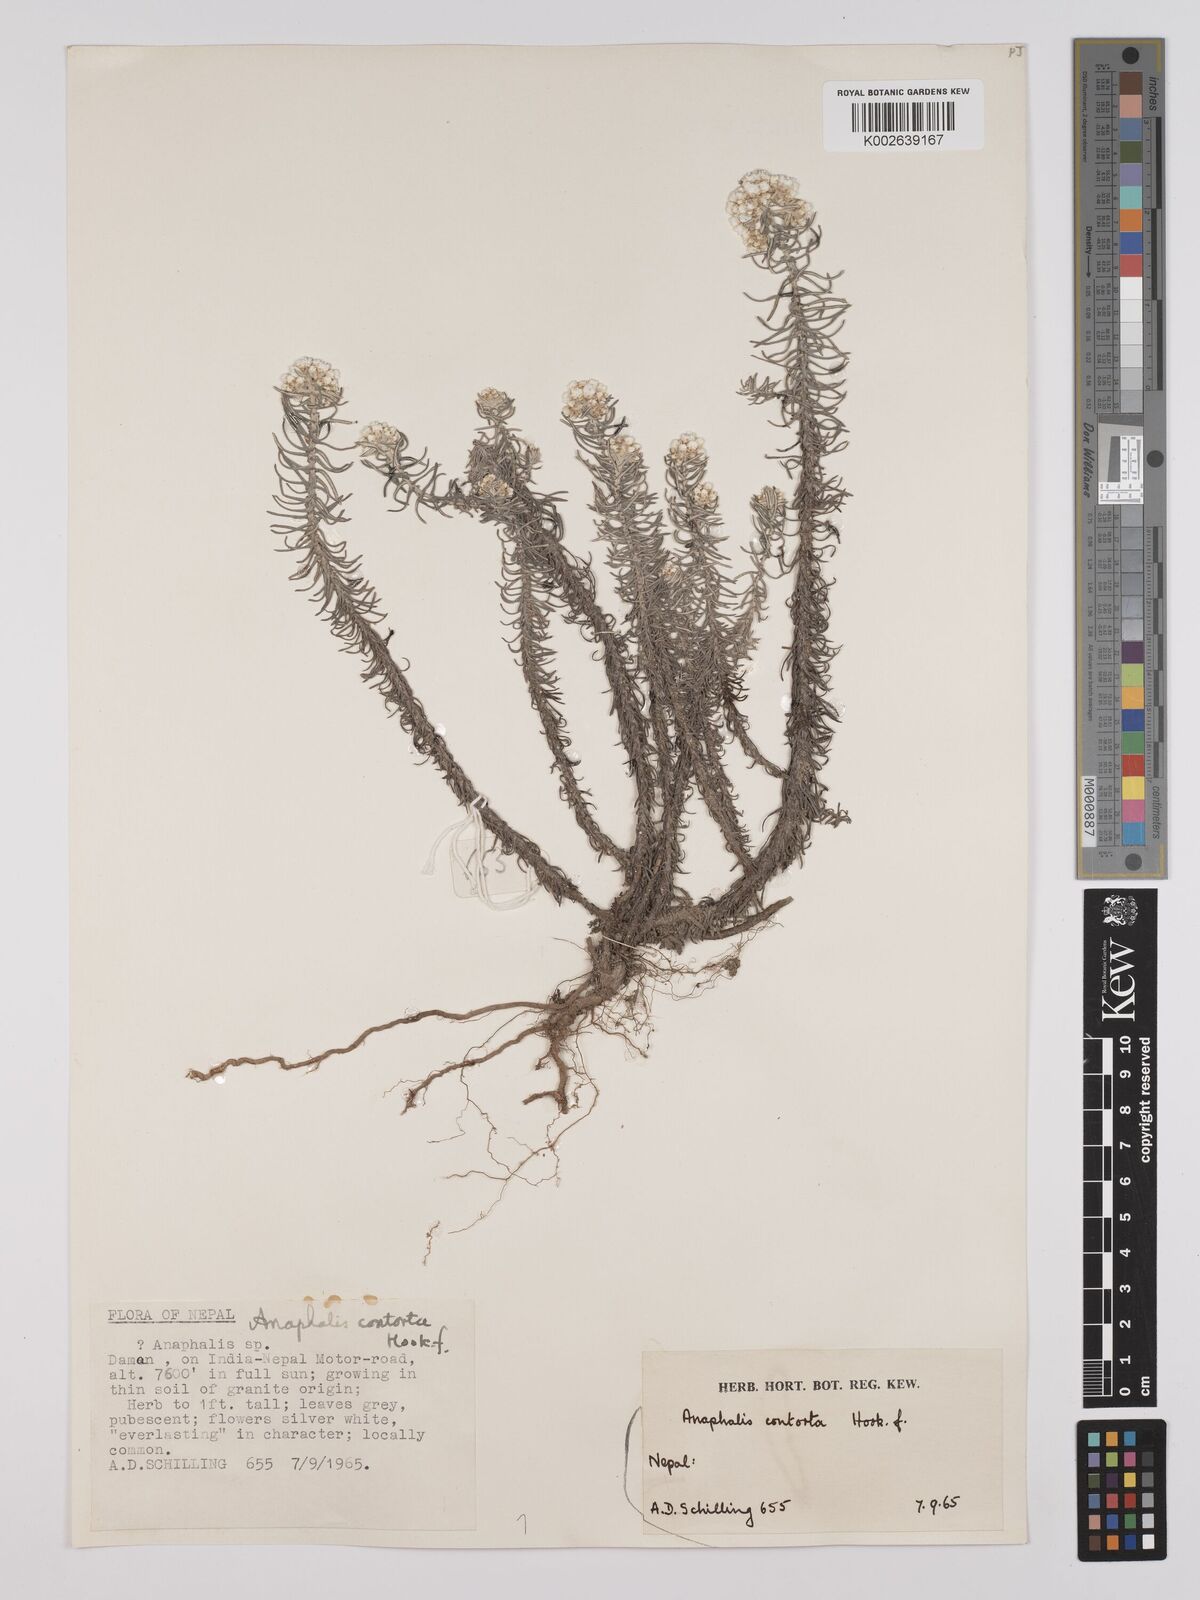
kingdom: Plantae
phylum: Tracheophyta
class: Magnoliopsida
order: Asterales
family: Asteraceae
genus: Anaphalis
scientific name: Anaphalis contorta
